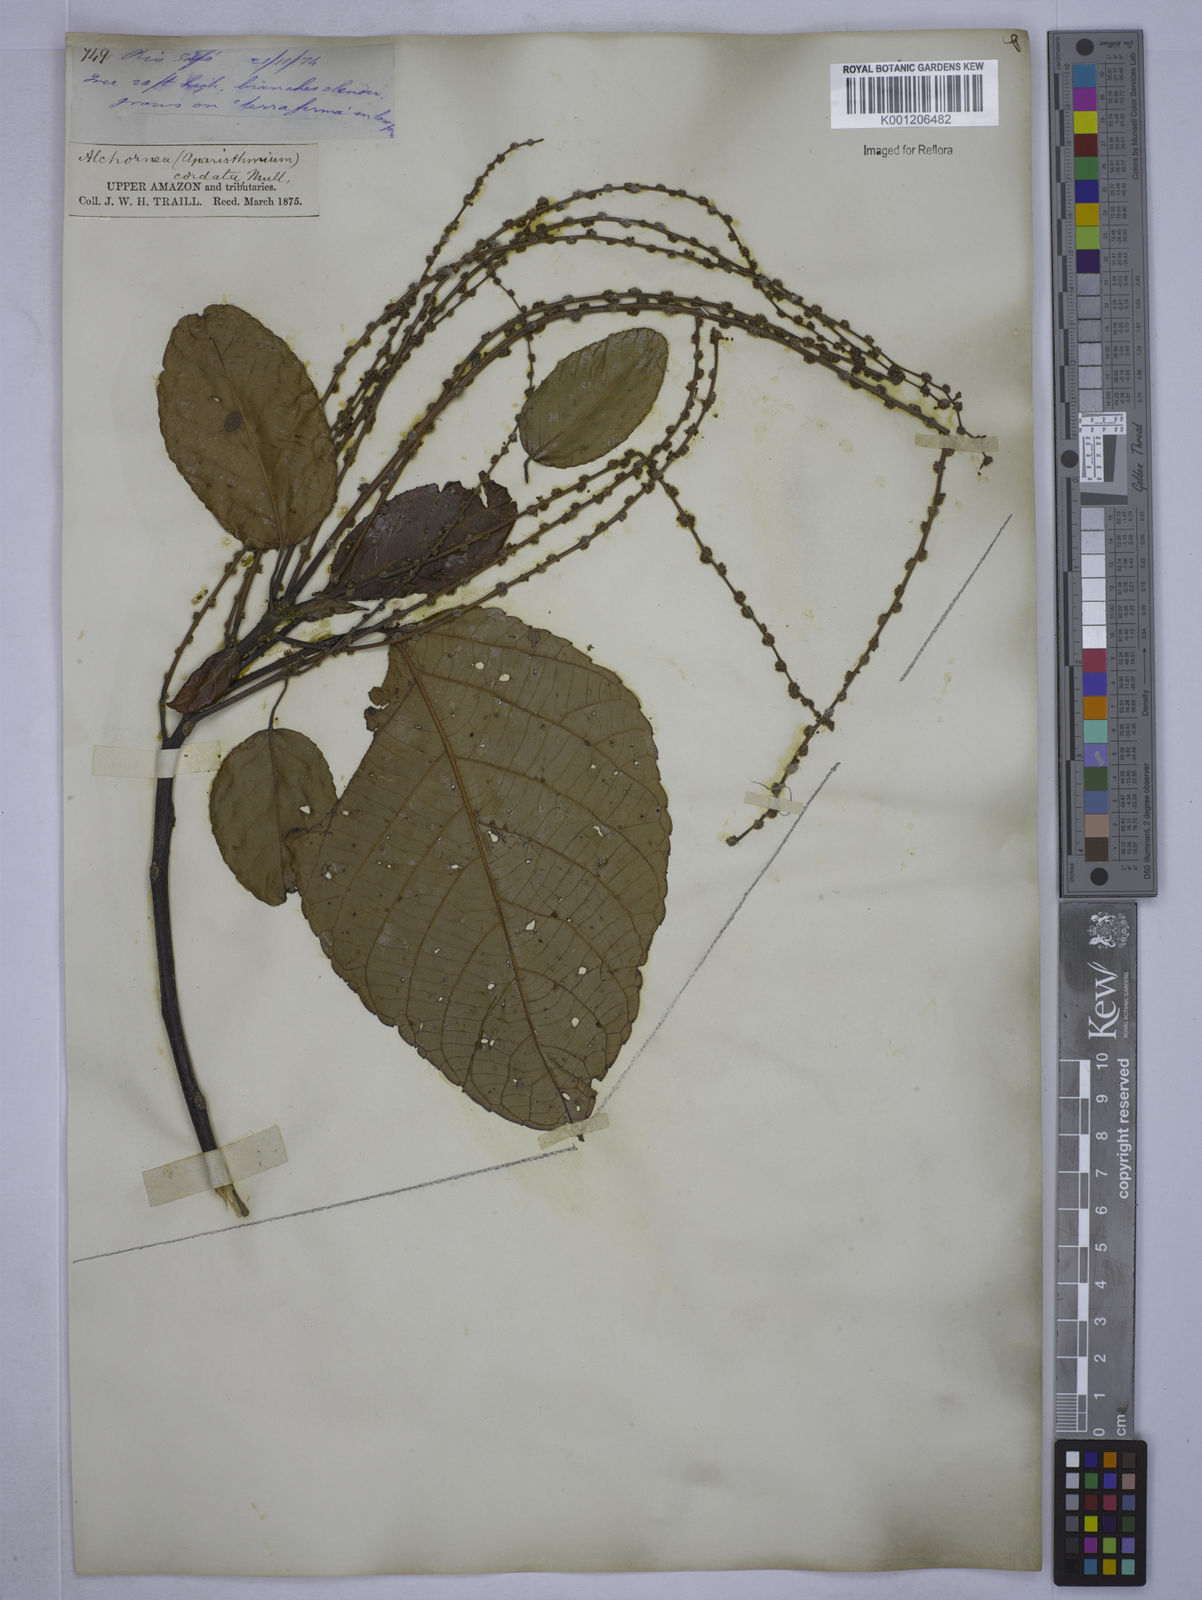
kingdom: Plantae
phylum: Tracheophyta
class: Magnoliopsida
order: Malpighiales
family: Euphorbiaceae
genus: Aparisthmium
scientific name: Aparisthmium cordatum
